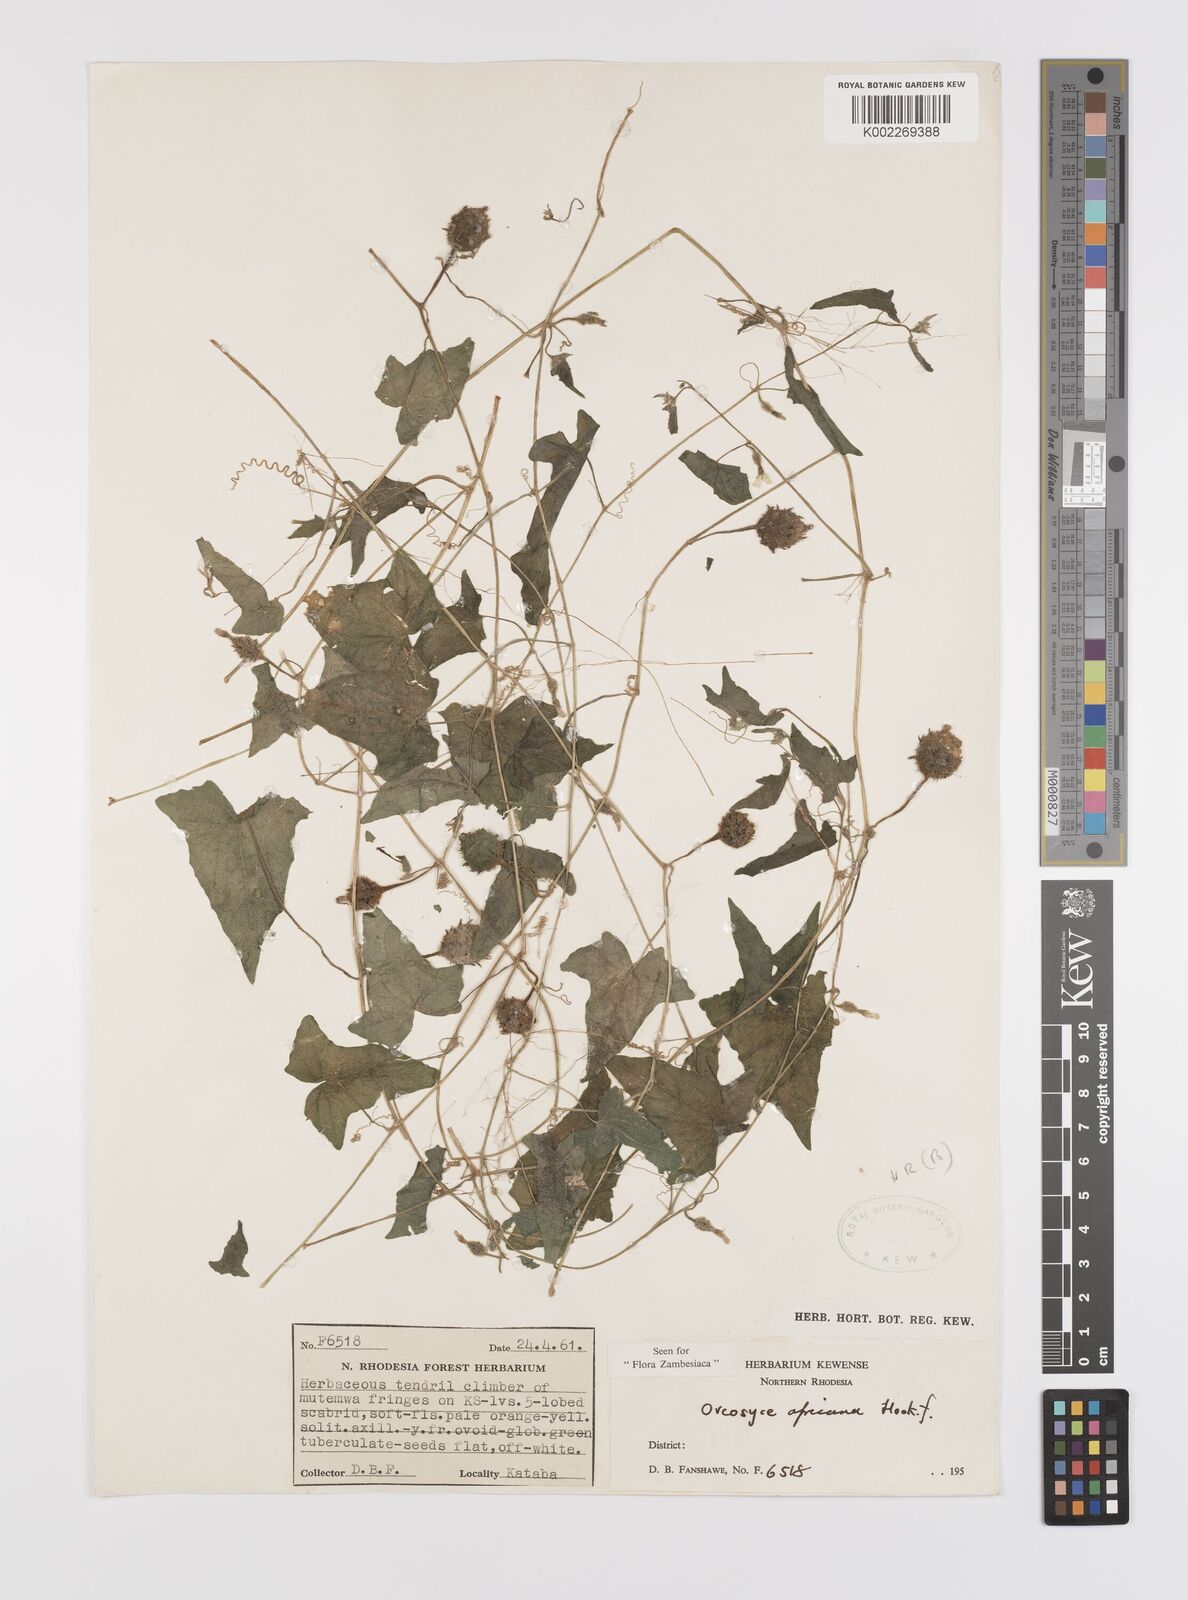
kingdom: Plantae
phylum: Tracheophyta
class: Magnoliopsida
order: Cucurbitales
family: Cucurbitaceae
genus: Cucumis
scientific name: Cucumis oreosyce
